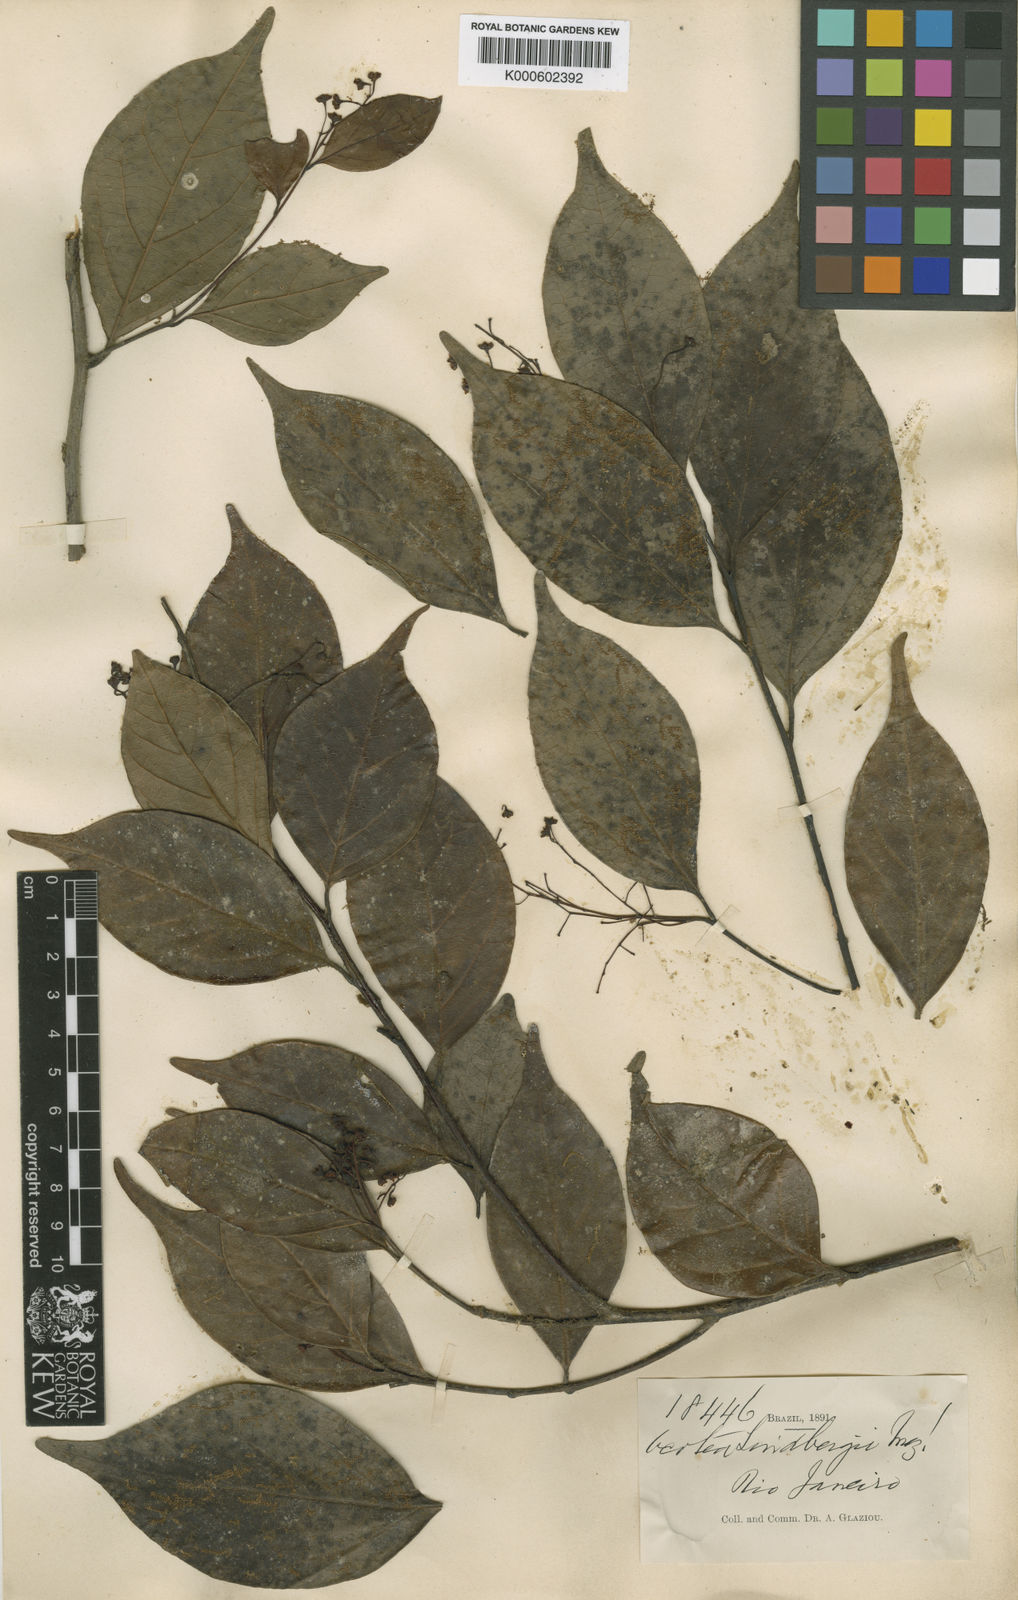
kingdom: Plantae
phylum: Tracheophyta
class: Magnoliopsida
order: Laurales
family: Lauraceae
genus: Ocotea
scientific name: Ocotea lindbergii
